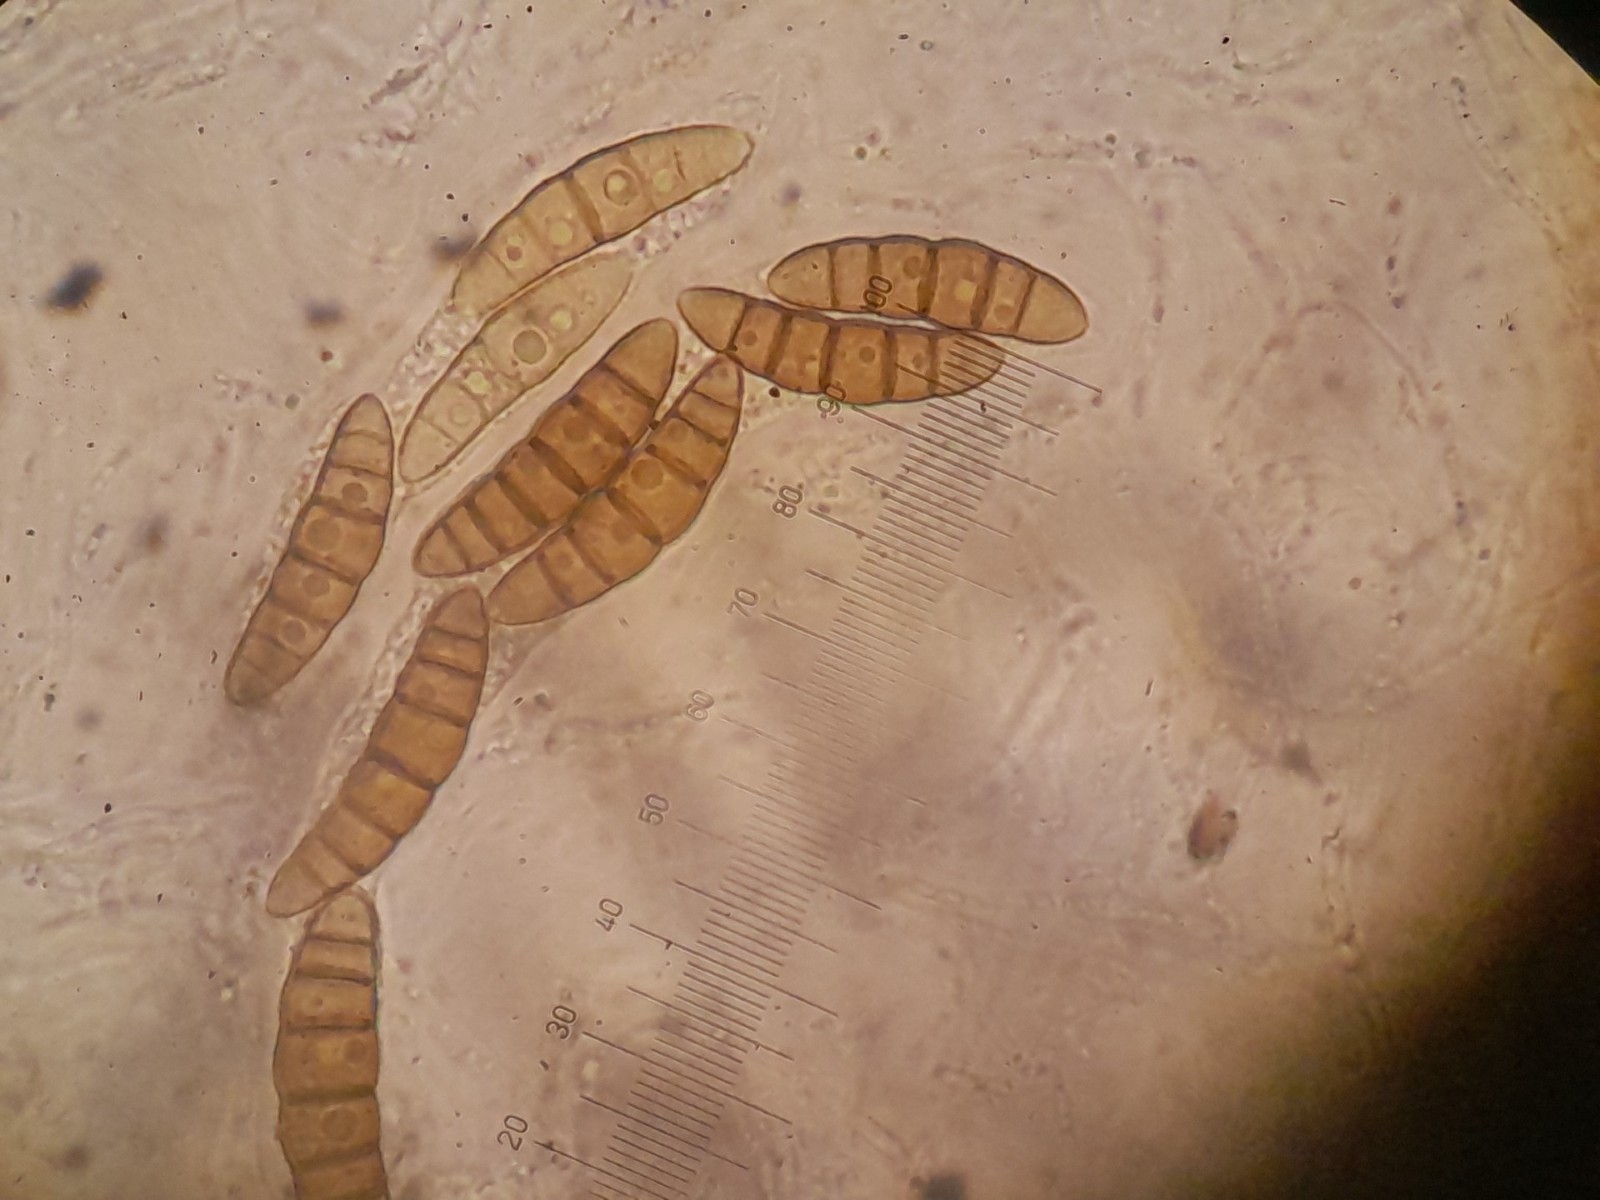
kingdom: Fungi
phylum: Ascomycota
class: Dothideomycetes
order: Pleosporales
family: Thyridariaceae
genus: Thyridaria
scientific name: Thyridaria macrostomoides
